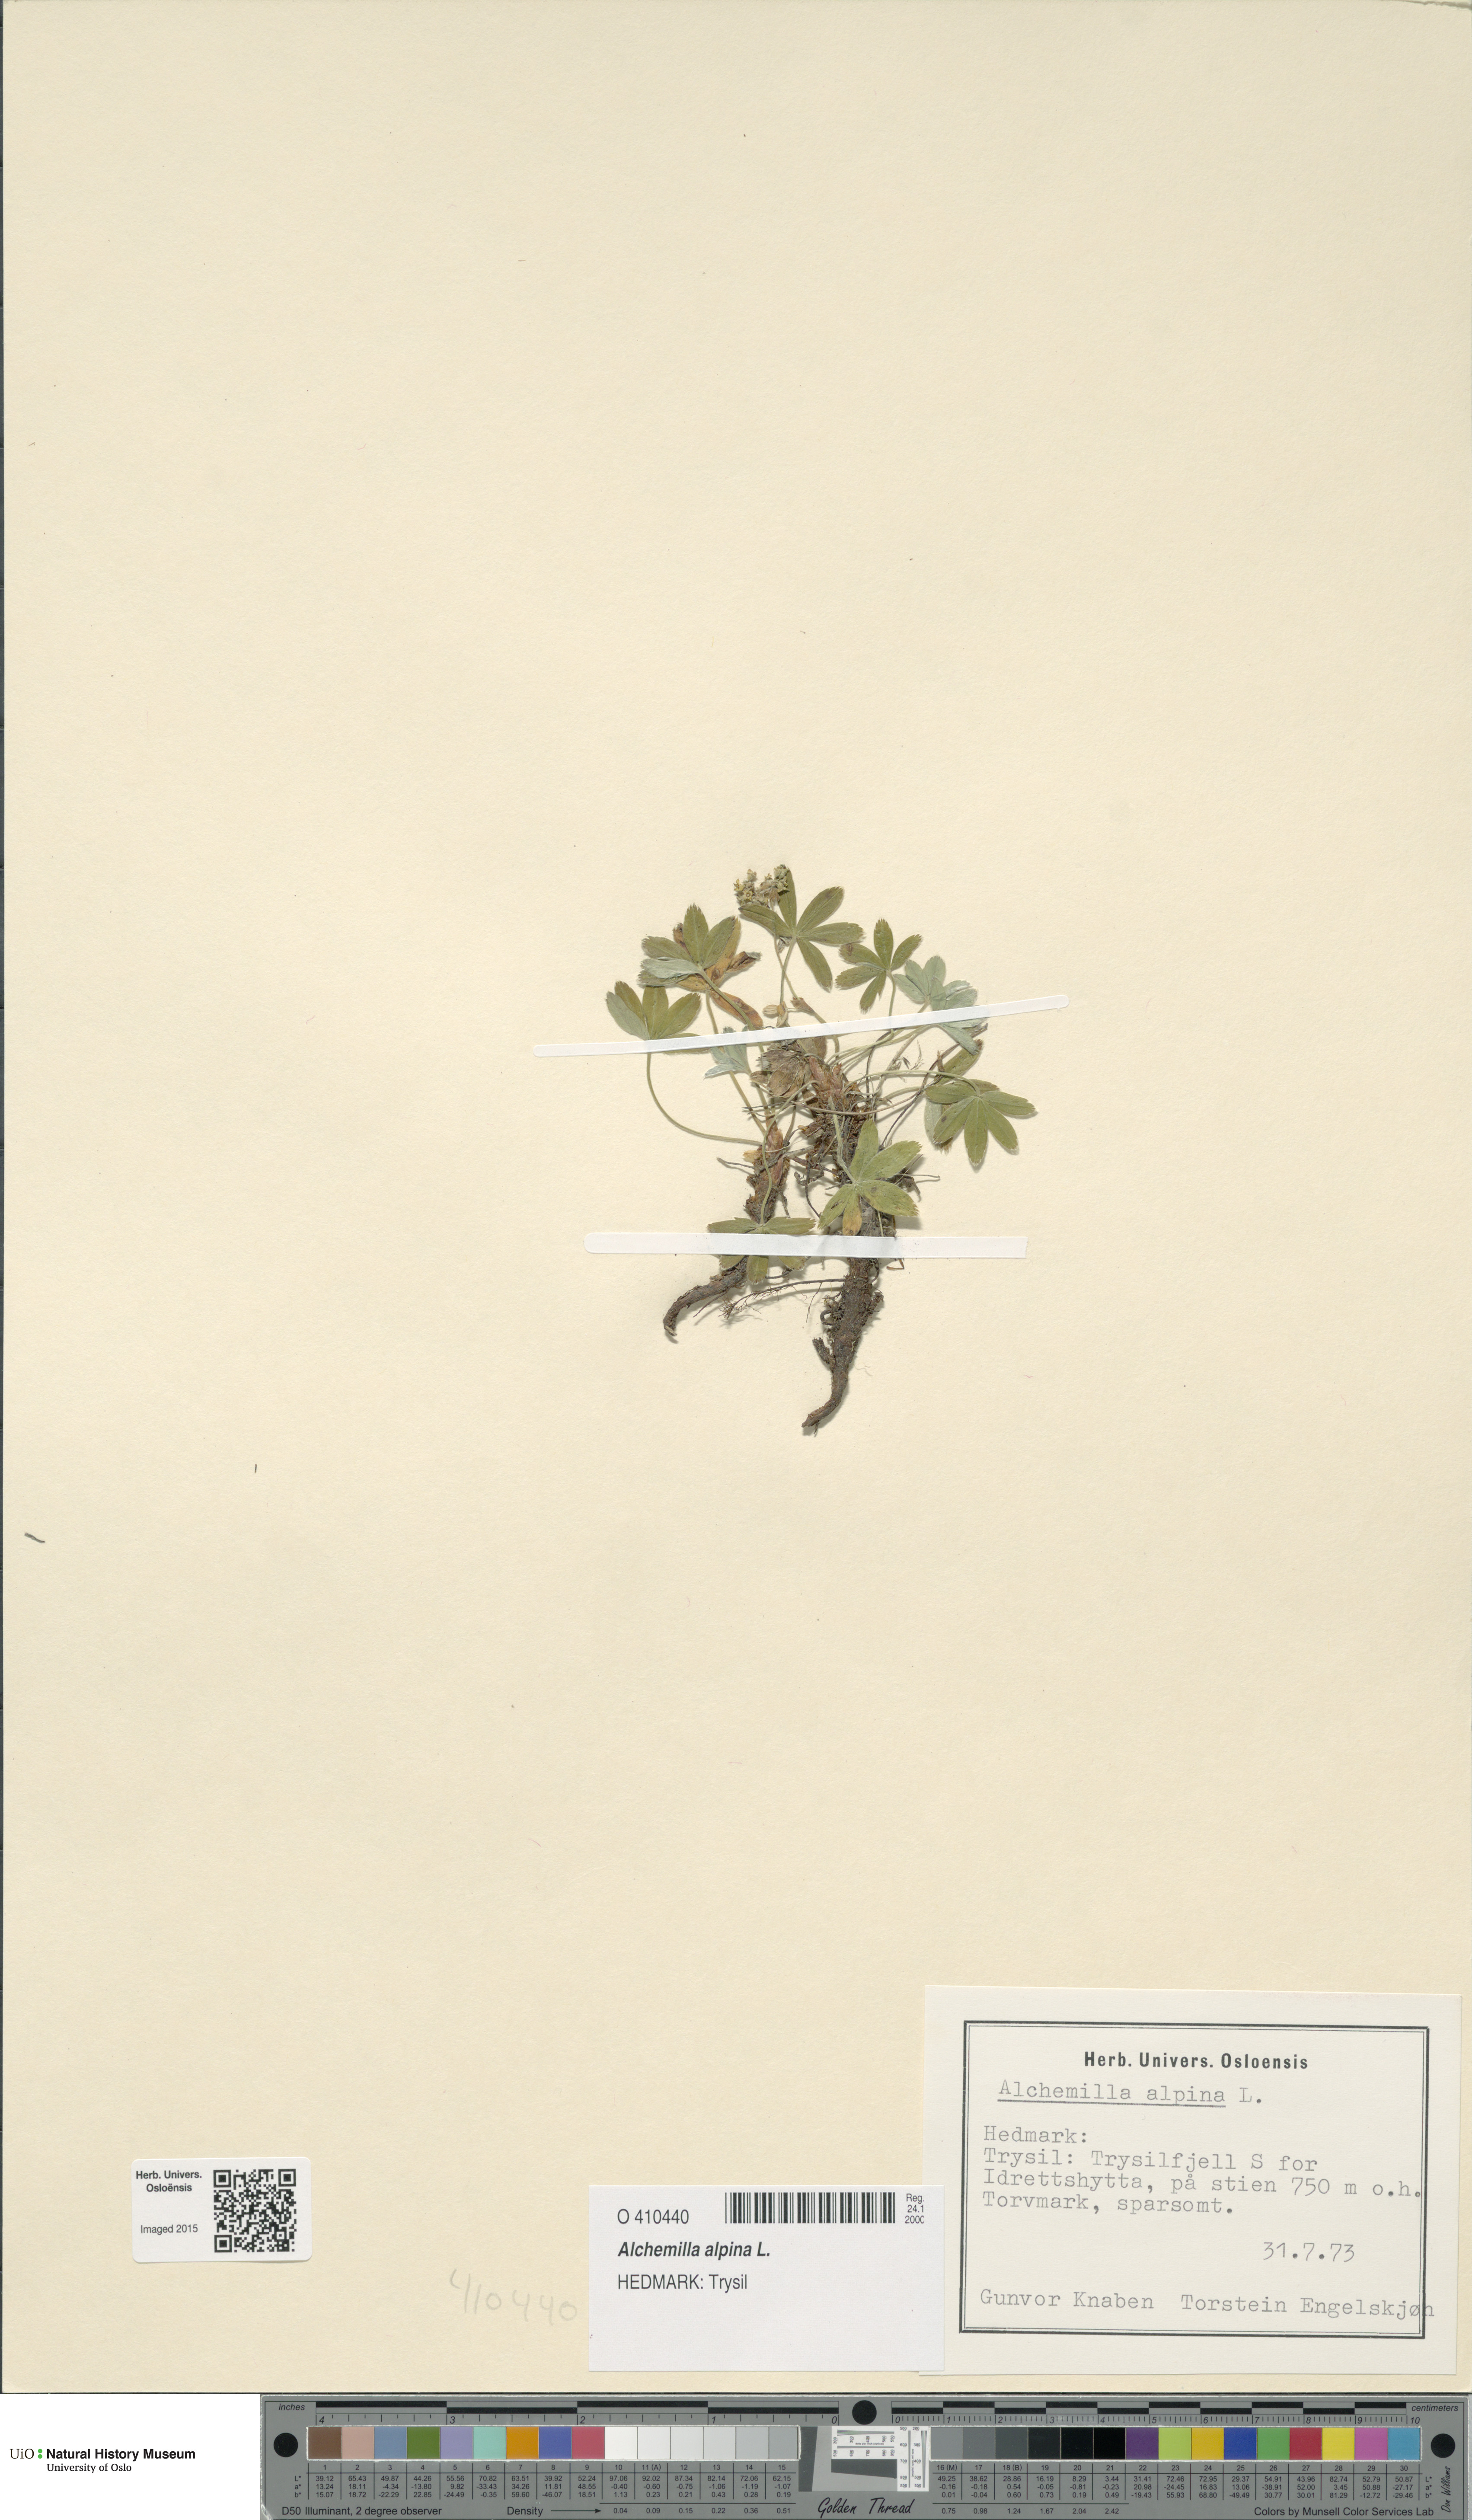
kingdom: Plantae
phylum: Tracheophyta
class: Magnoliopsida
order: Rosales
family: Rosaceae
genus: Alchemilla
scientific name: Alchemilla alpina
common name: Alpine lady's-mantle
